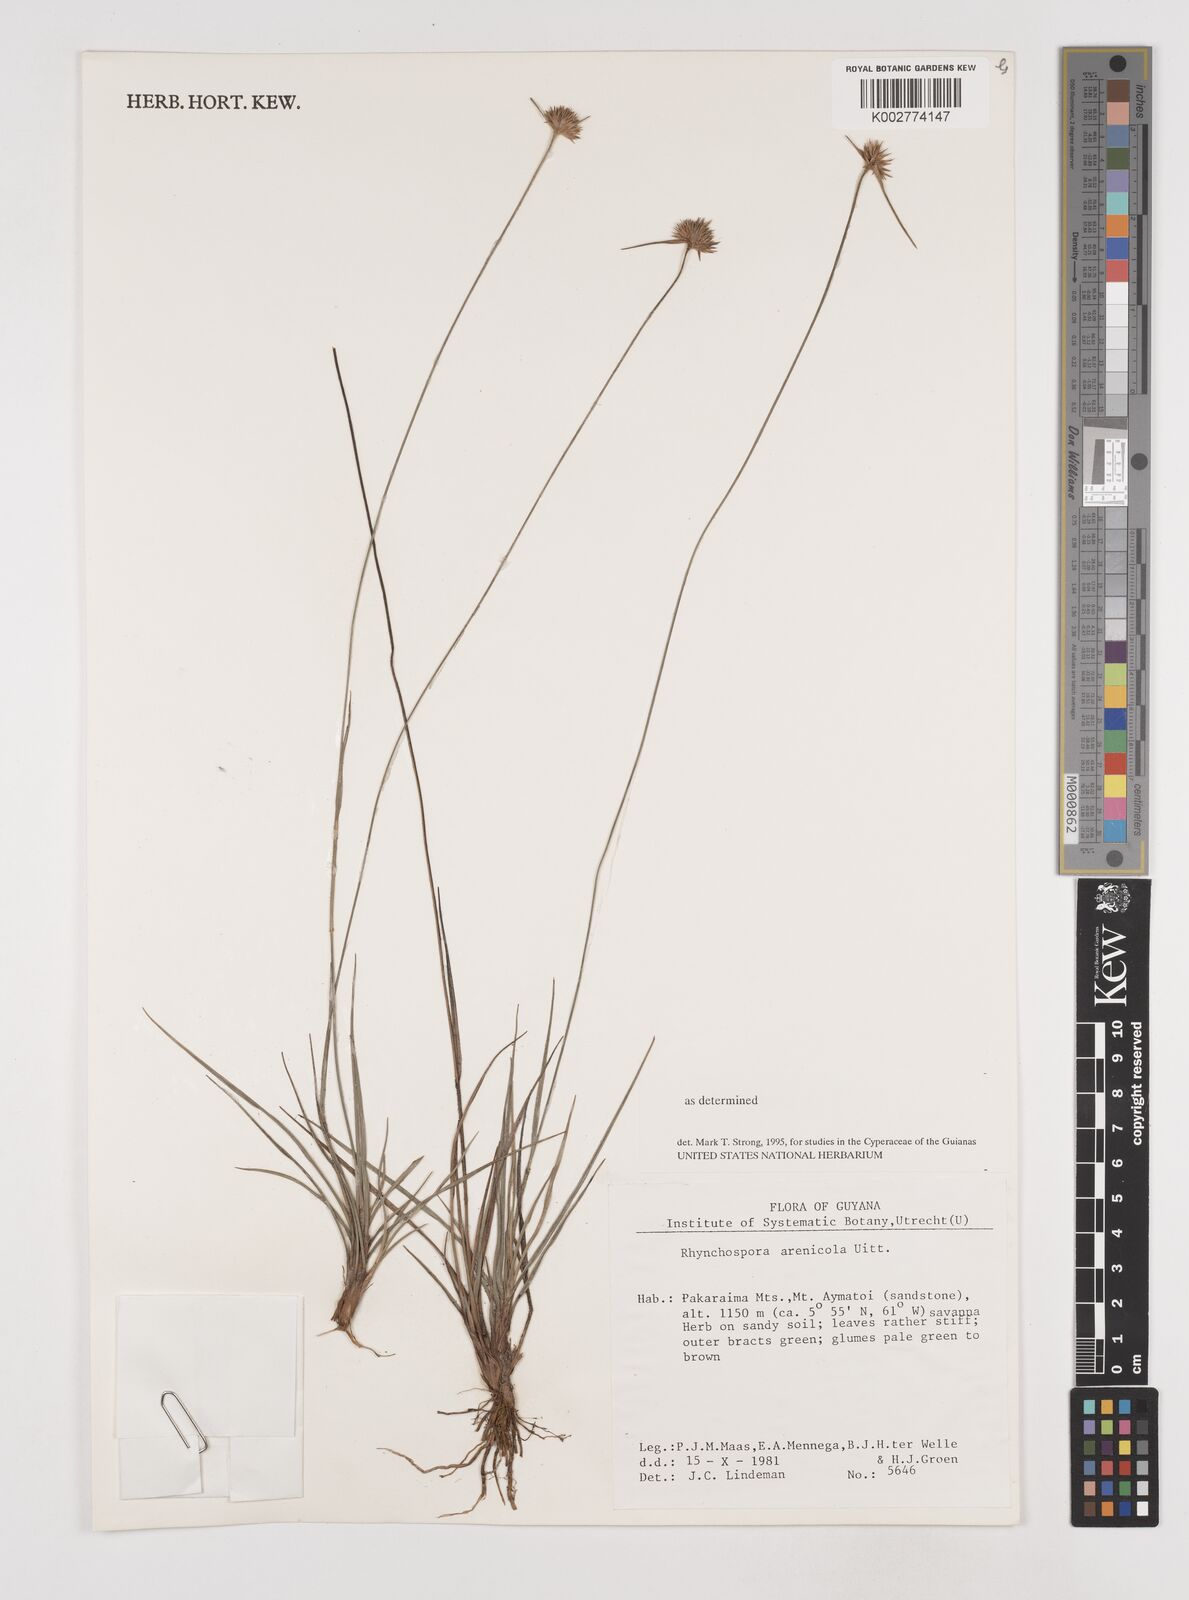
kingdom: Plantae
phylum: Tracheophyta
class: Liliopsida
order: Poales
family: Cyperaceae
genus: Rhynchospora
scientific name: Rhynchospora arenicola
